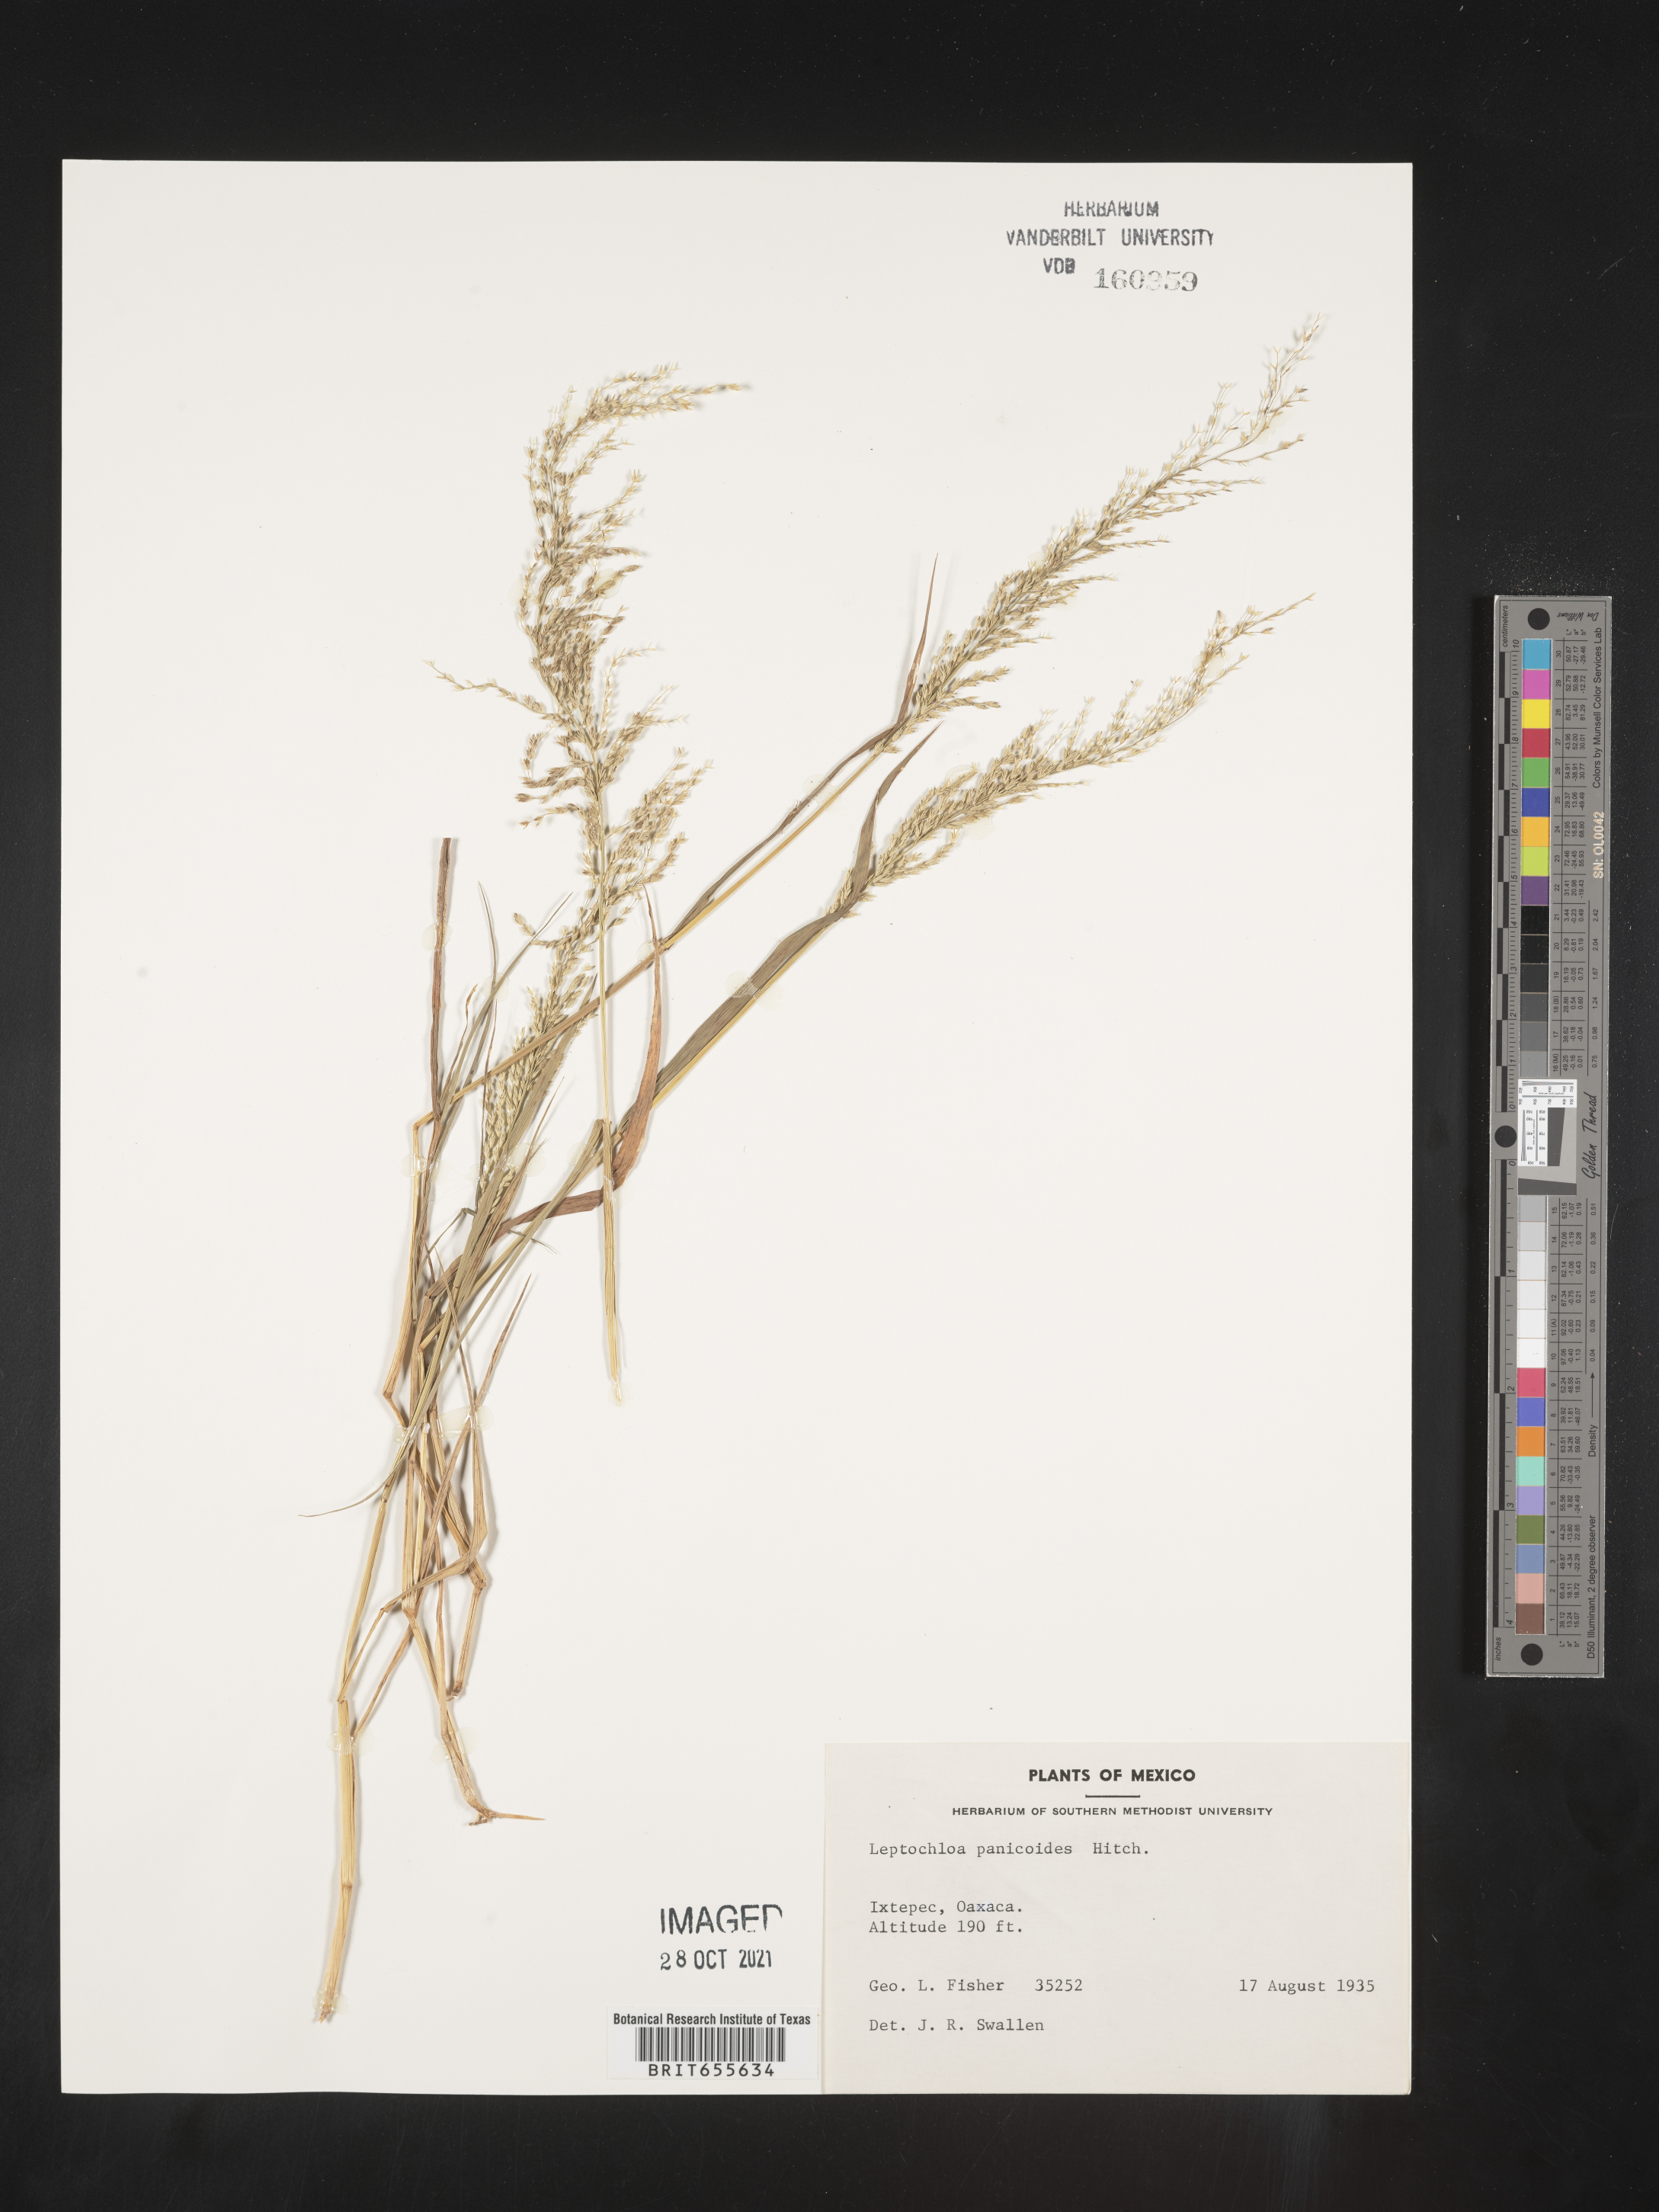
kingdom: Plantae
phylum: Tracheophyta
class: Liliopsida
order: Poales
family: Poaceae
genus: Leptochloa
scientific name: Leptochloa
